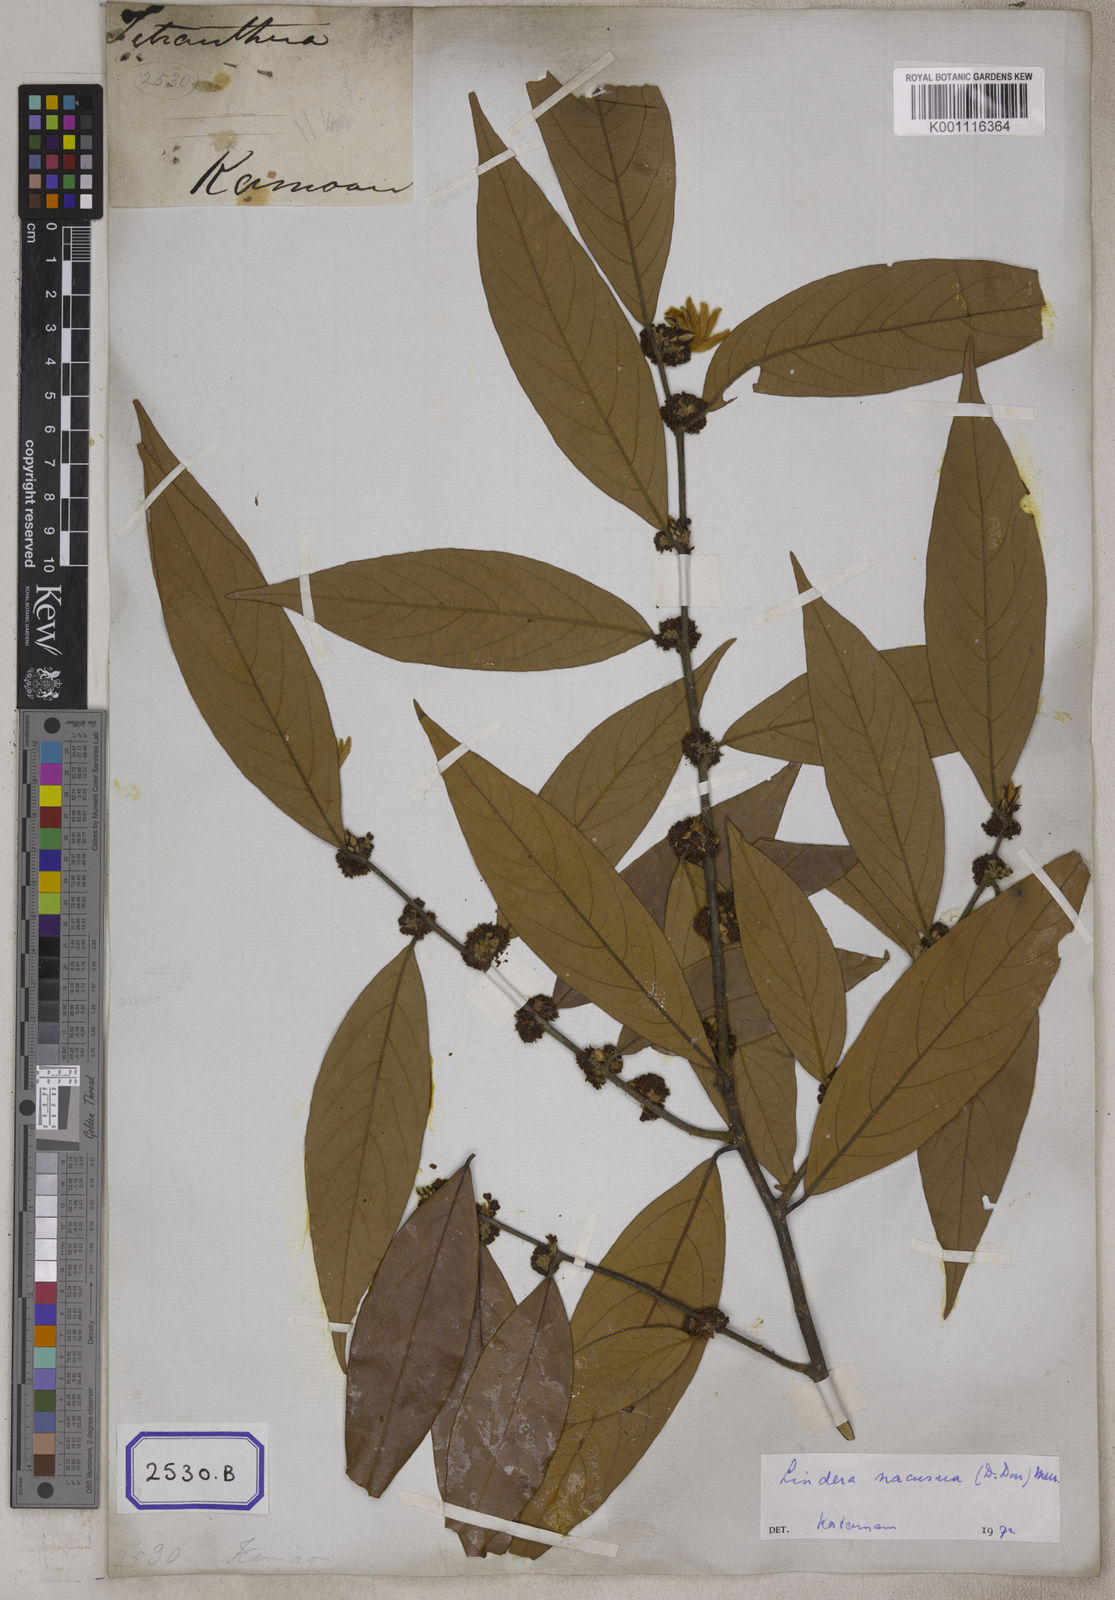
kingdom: Plantae
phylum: Tracheophyta
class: Magnoliopsida
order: Laurales
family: Lauraceae
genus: Lindera
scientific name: Lindera nacusua
